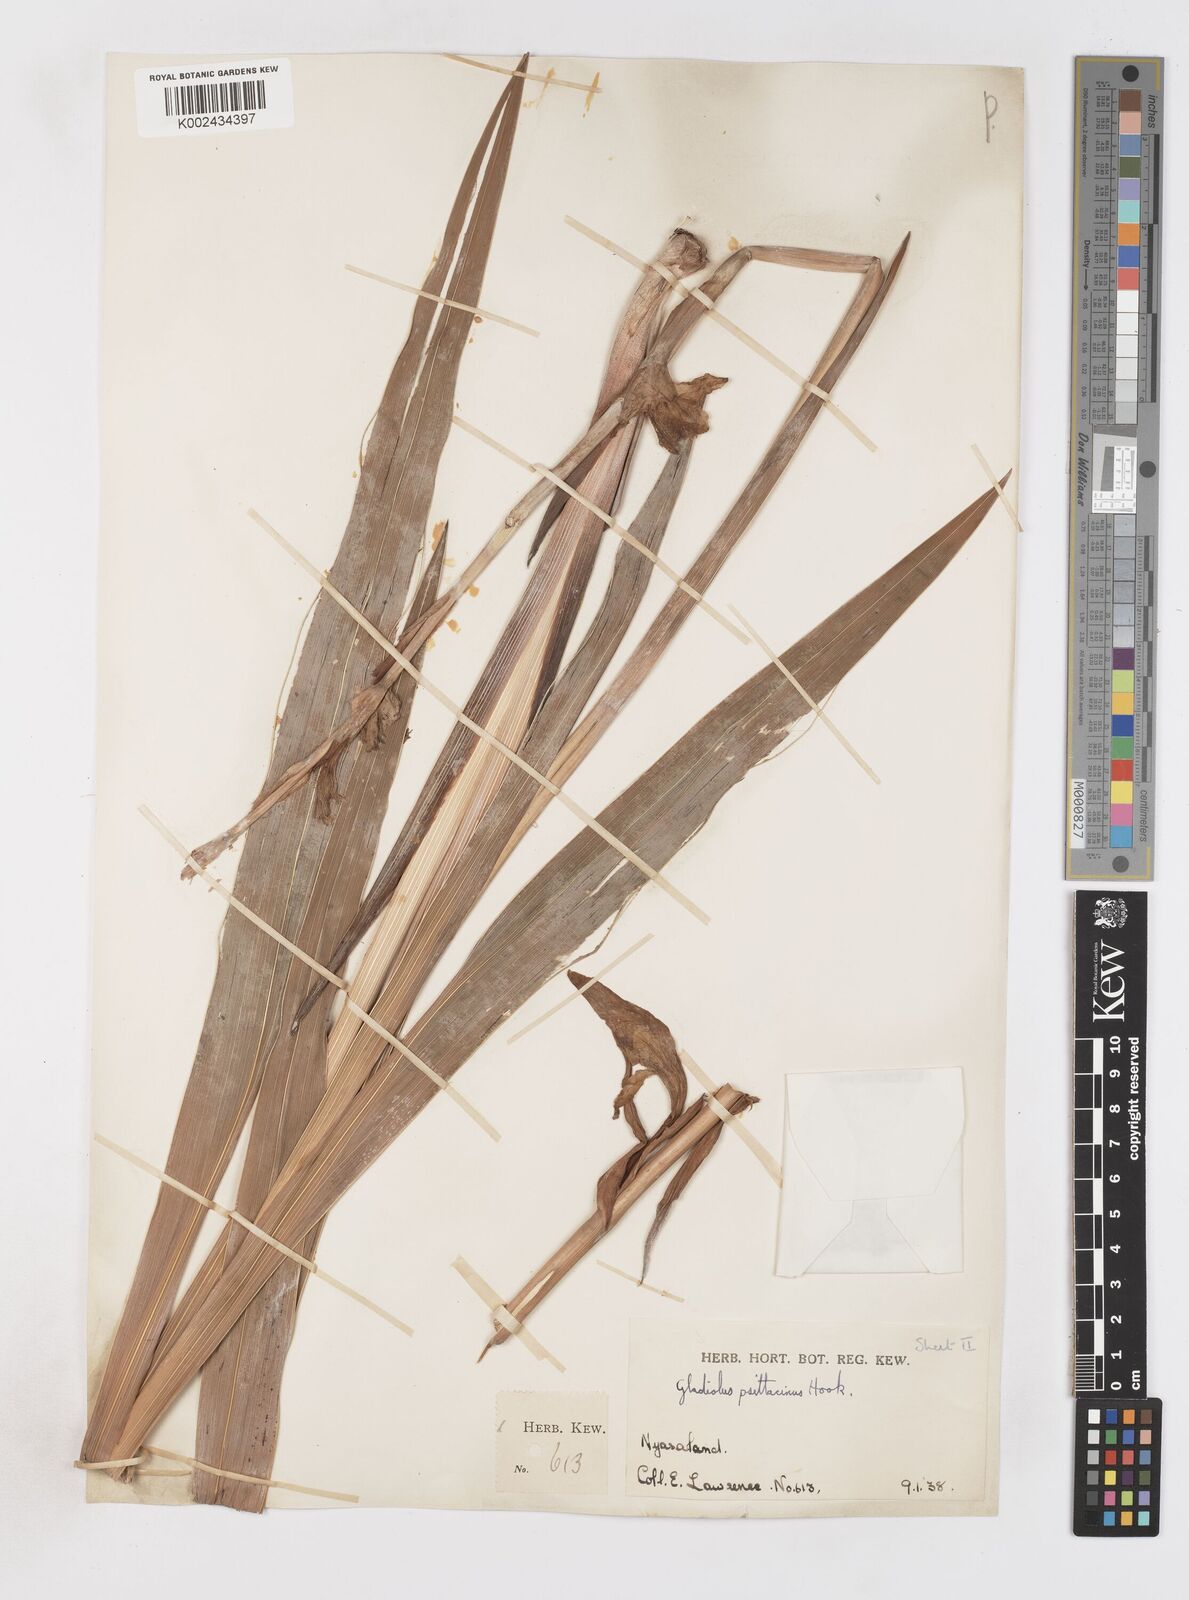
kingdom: Plantae
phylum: Tracheophyta
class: Liliopsida
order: Asparagales
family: Iridaceae
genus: Gladiolus
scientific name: Gladiolus dalenii
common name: Cornflag
